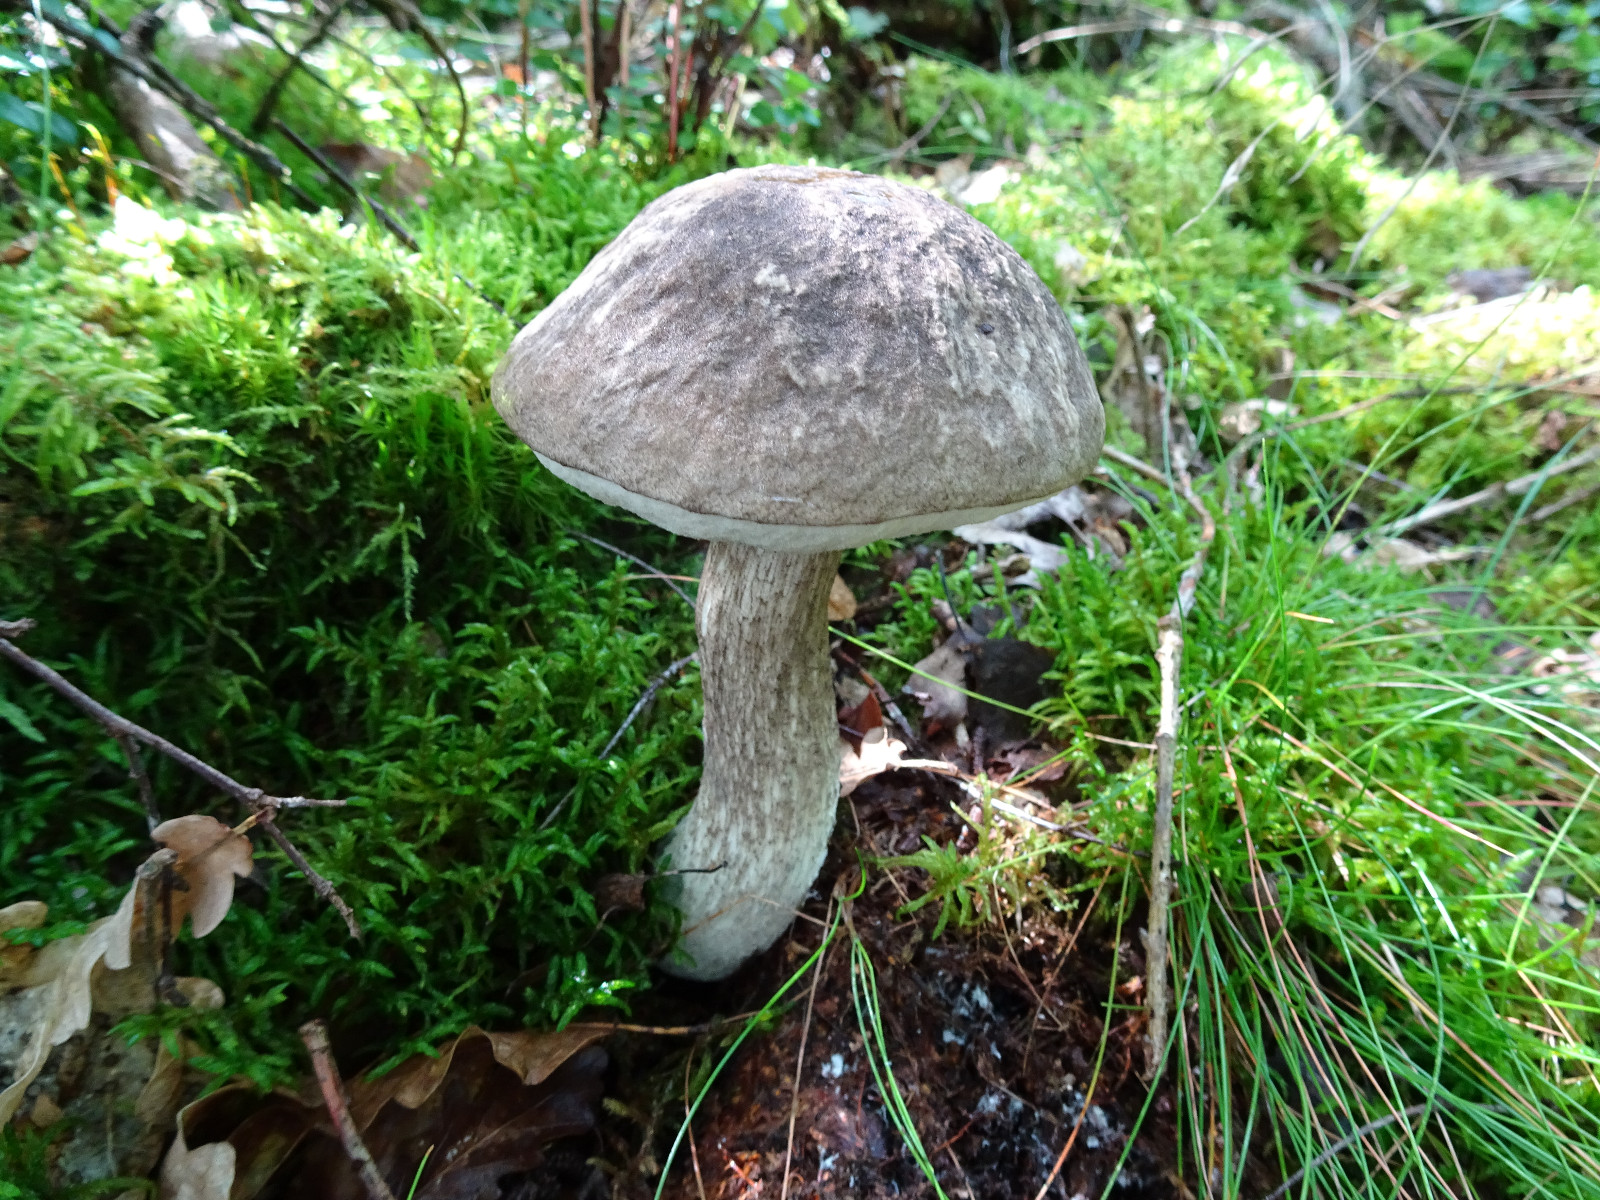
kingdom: Fungi
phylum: Basidiomycota
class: Agaricomycetes
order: Boletales
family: Boletaceae
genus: Leccinum
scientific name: Leccinum variicolor
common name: flammet skælrørhat
